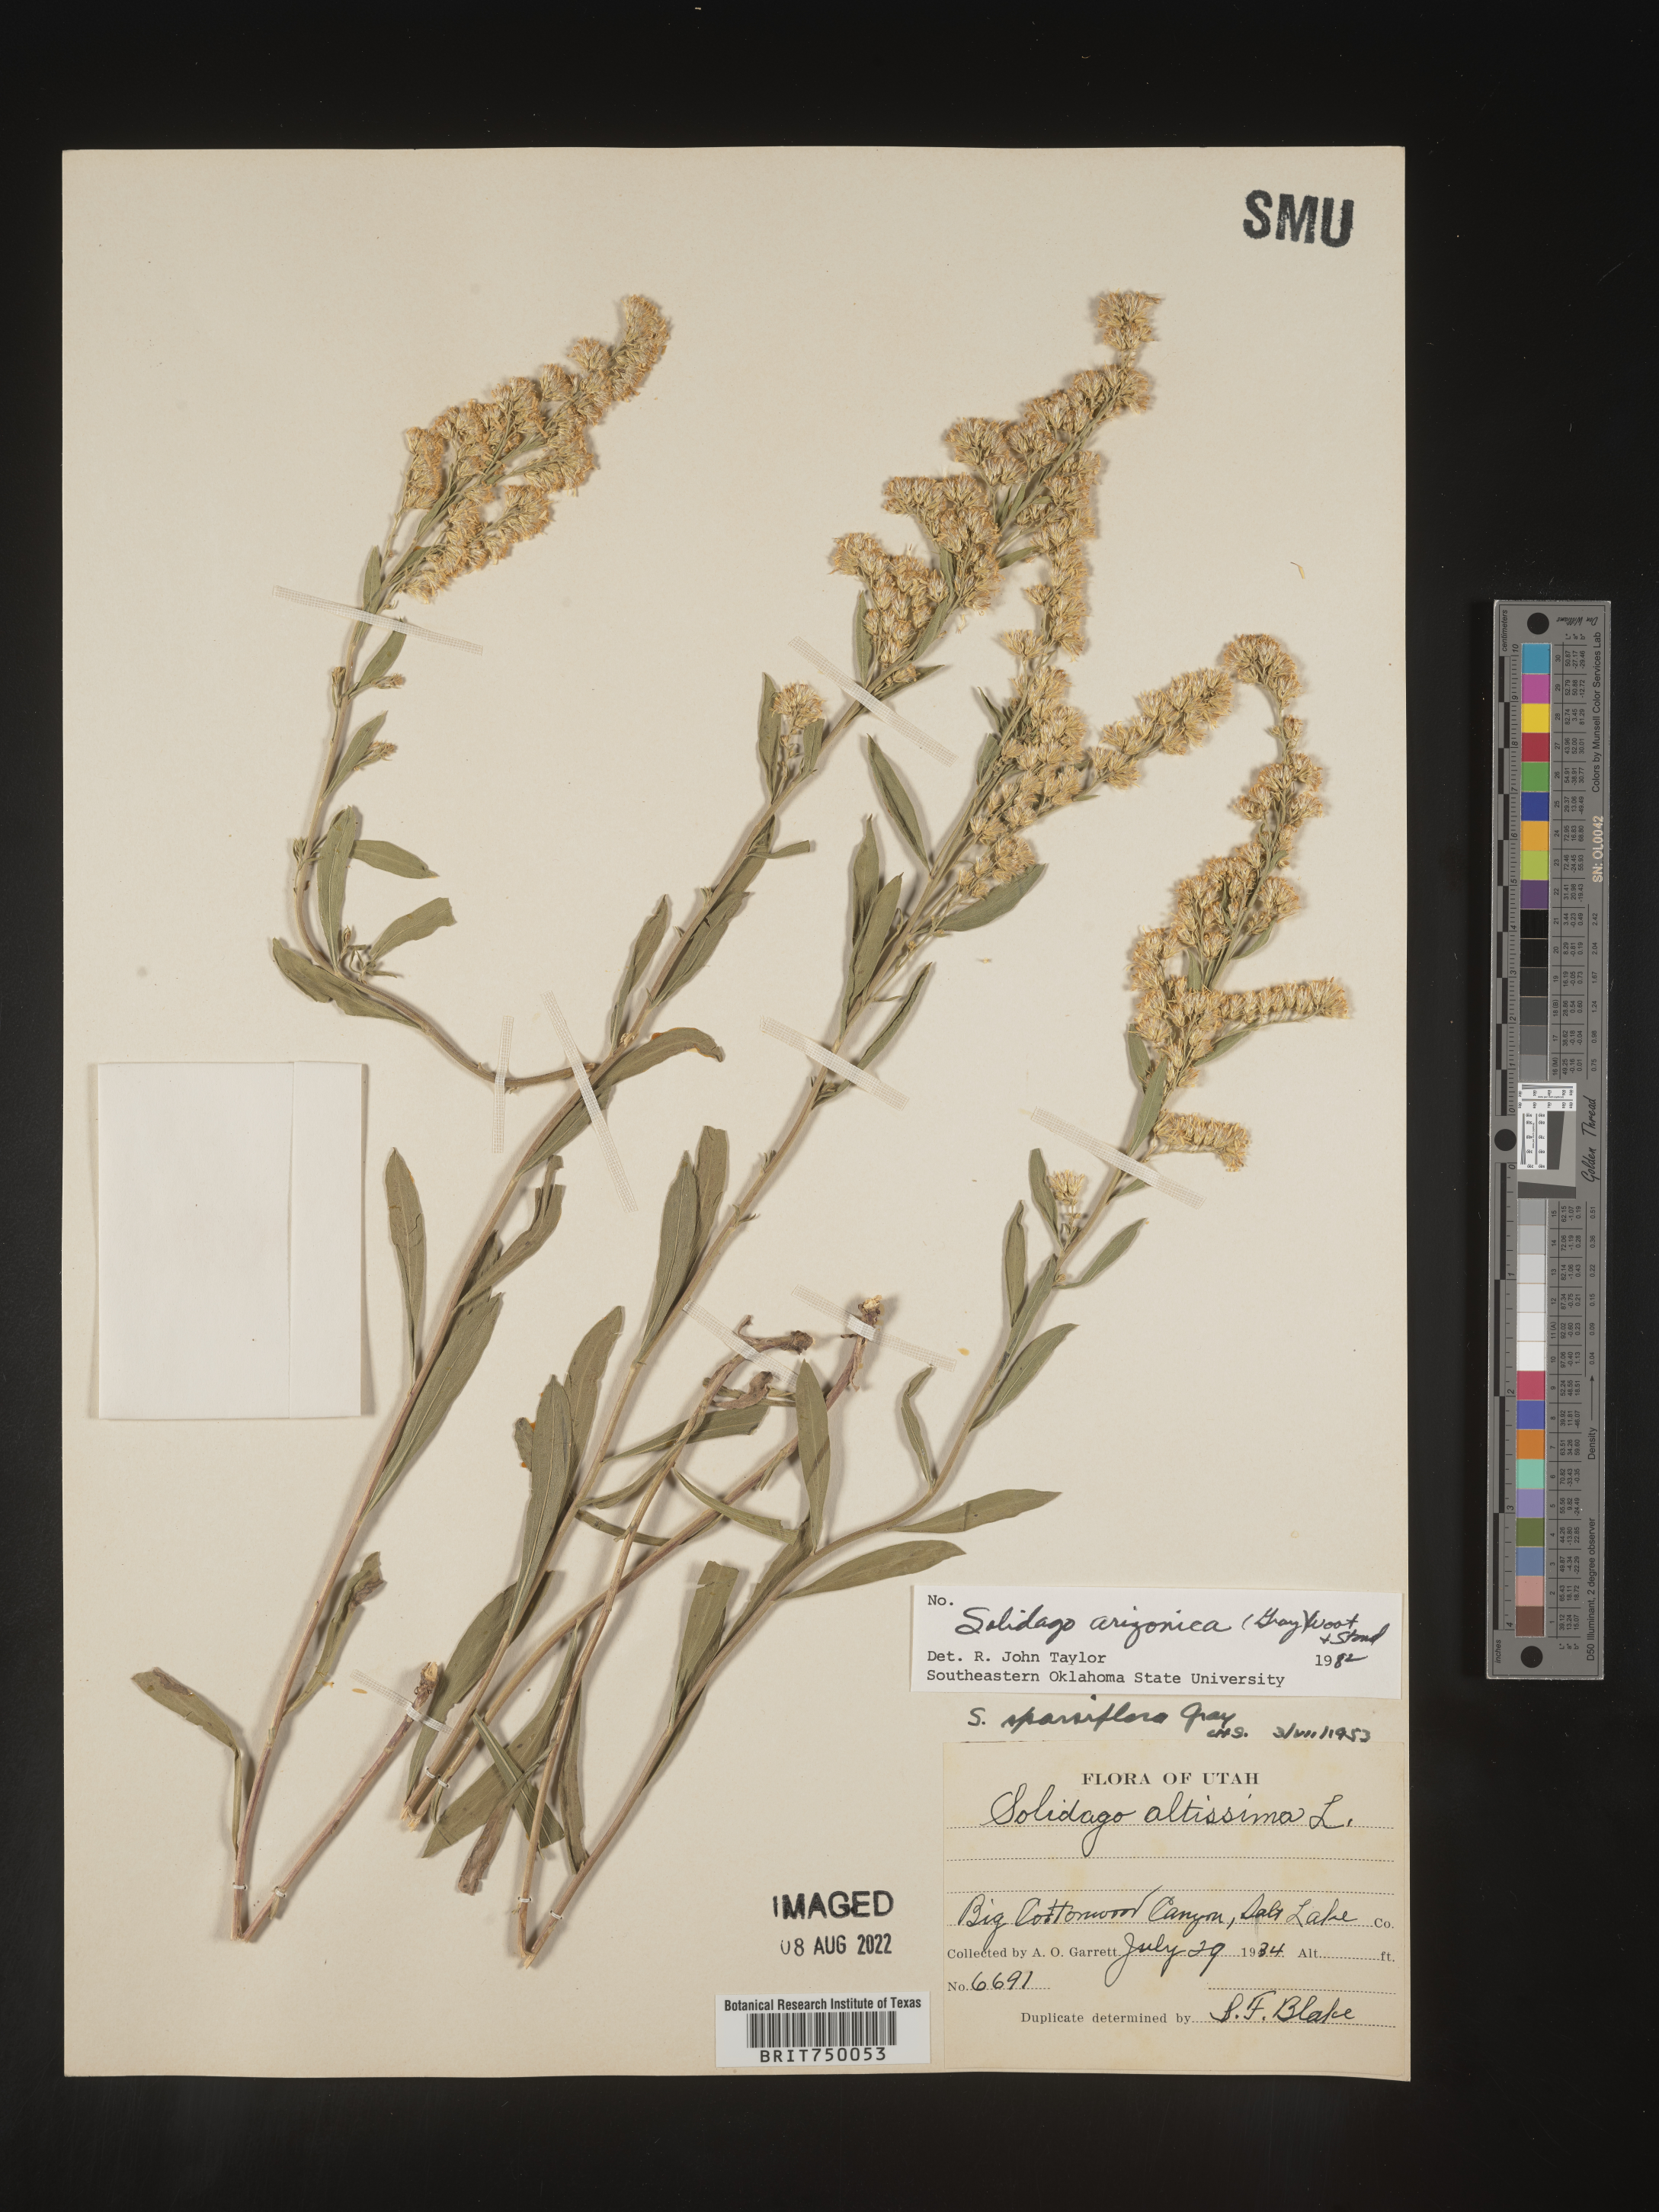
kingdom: Plantae
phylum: Tracheophyta
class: Magnoliopsida
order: Asterales
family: Asteraceae
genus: Solidago
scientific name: Solidago garrettii
